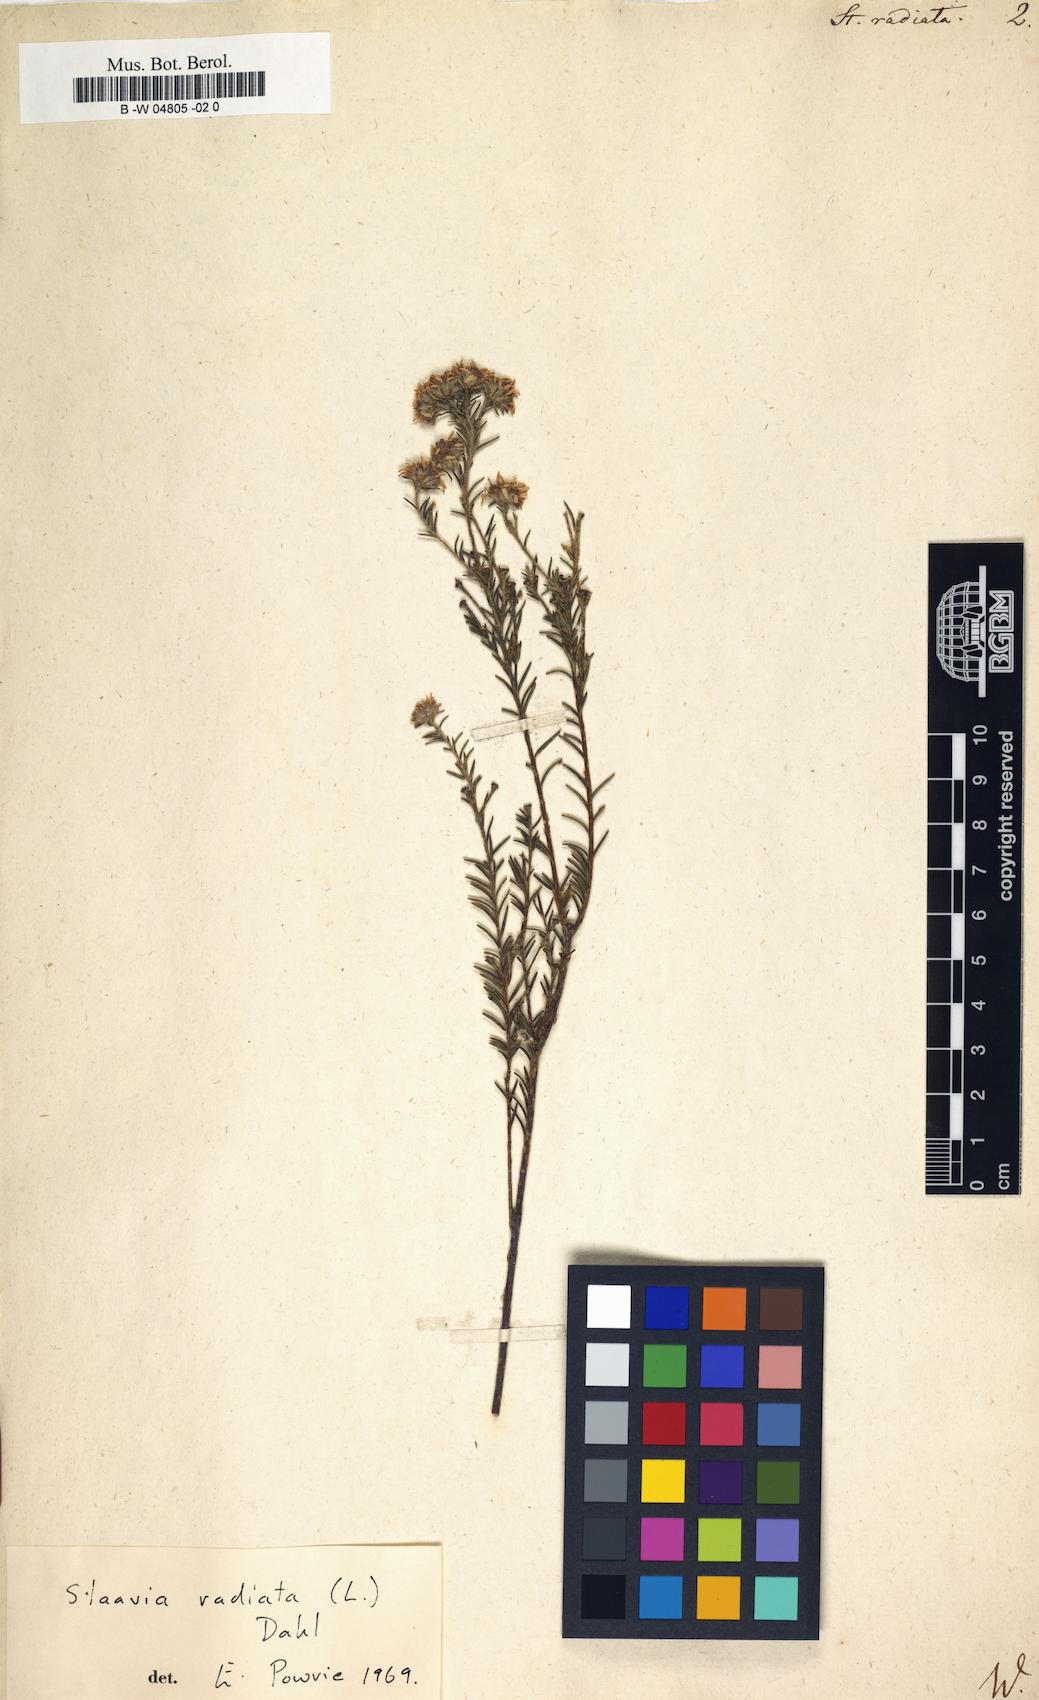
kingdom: Plantae
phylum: Tracheophyta
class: Magnoliopsida
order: Bruniales
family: Bruniaceae
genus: Staavia
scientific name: Staavia radiata
